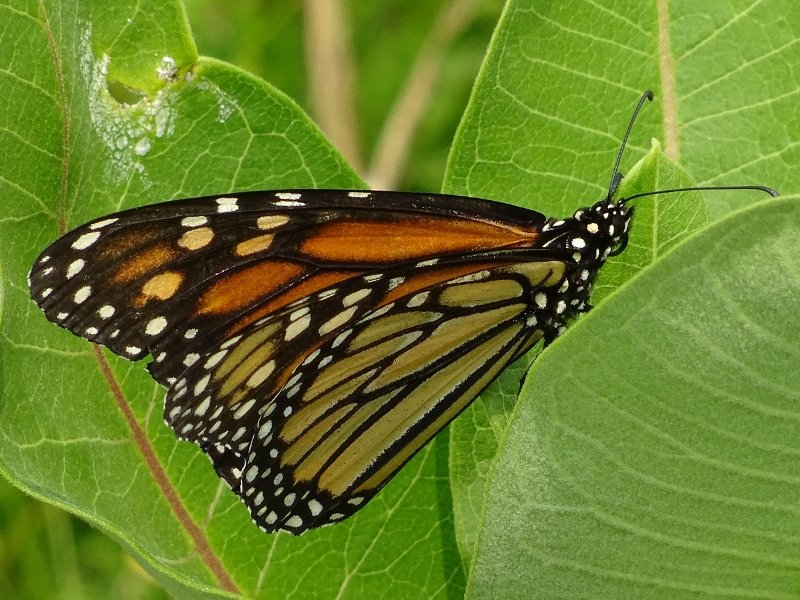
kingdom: Animalia
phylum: Arthropoda
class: Insecta
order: Lepidoptera
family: Nymphalidae
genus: Danaus
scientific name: Danaus plexippus
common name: Monarch
